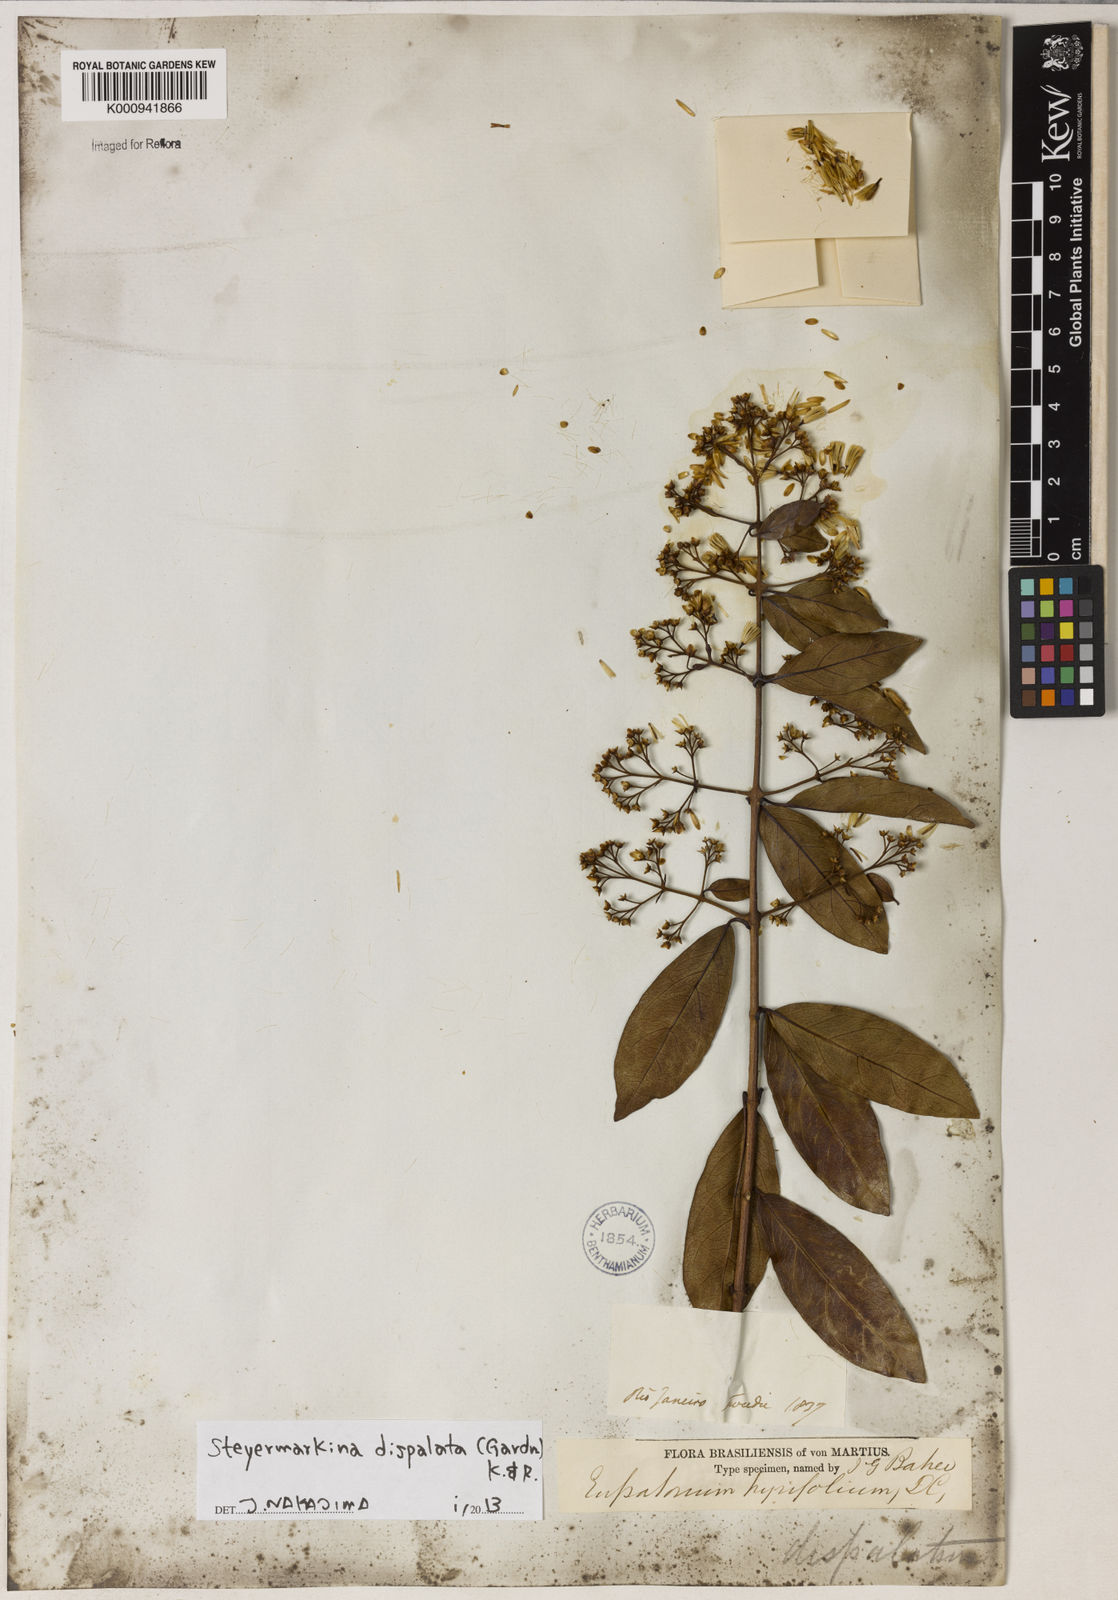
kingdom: Plantae
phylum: Tracheophyta
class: Magnoliopsida
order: Asterales
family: Asteraceae
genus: Steyermarkina
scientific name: Steyermarkina dispalata
